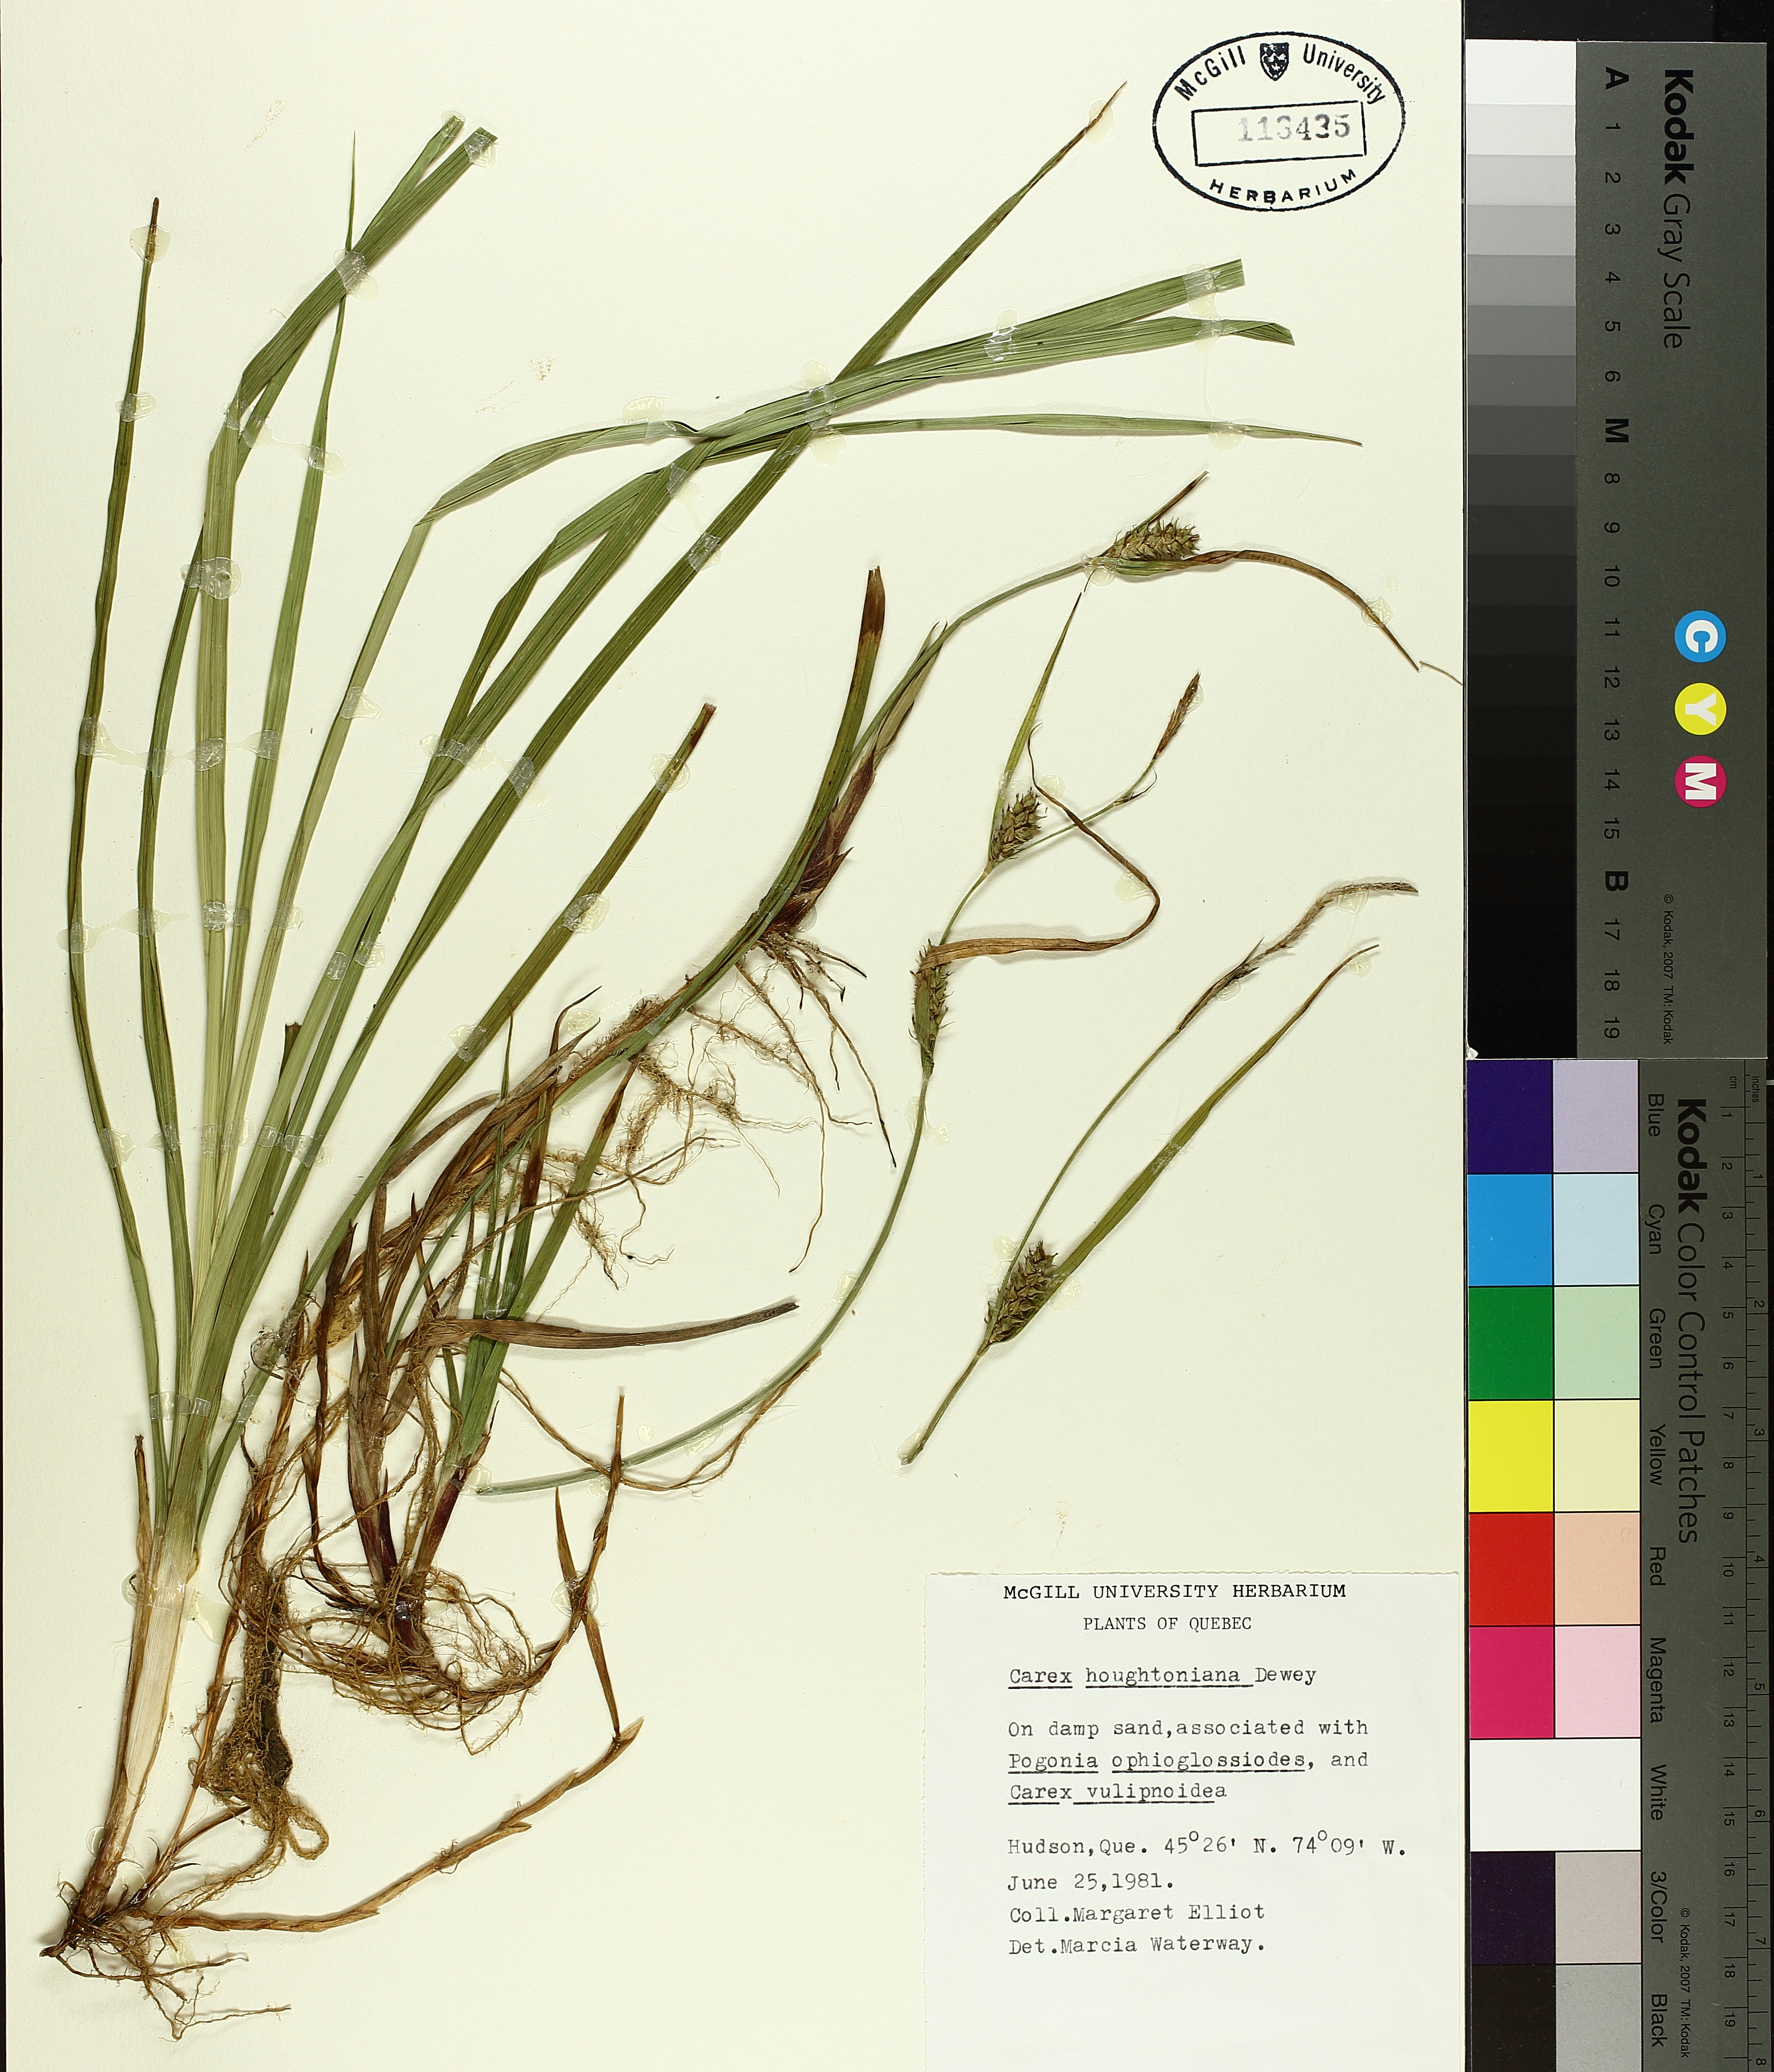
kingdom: Plantae
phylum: Tracheophyta
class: Liliopsida
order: Poales
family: Cyperaceae
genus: Carex
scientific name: Carex houghtoniana
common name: Houghton's sedge
